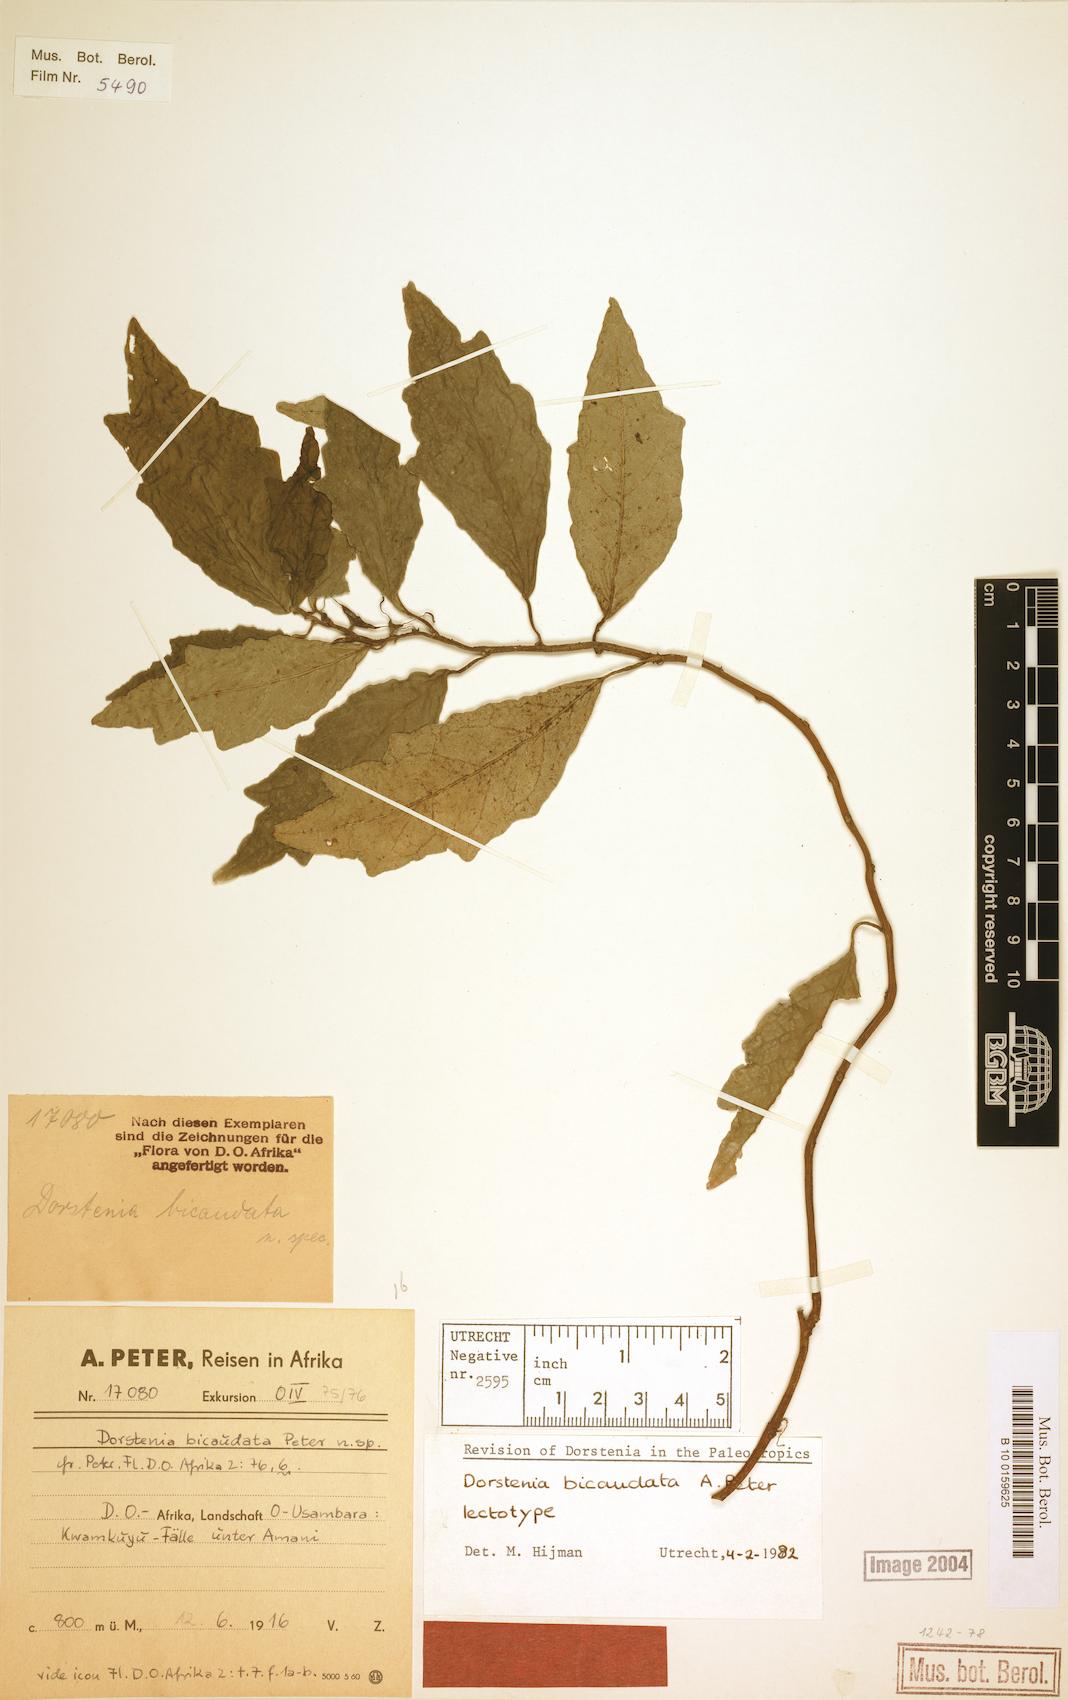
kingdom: Plantae
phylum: Tracheophyta
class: Magnoliopsida
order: Rosales
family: Moraceae
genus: Dorstenia
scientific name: Dorstenia bicaudata
